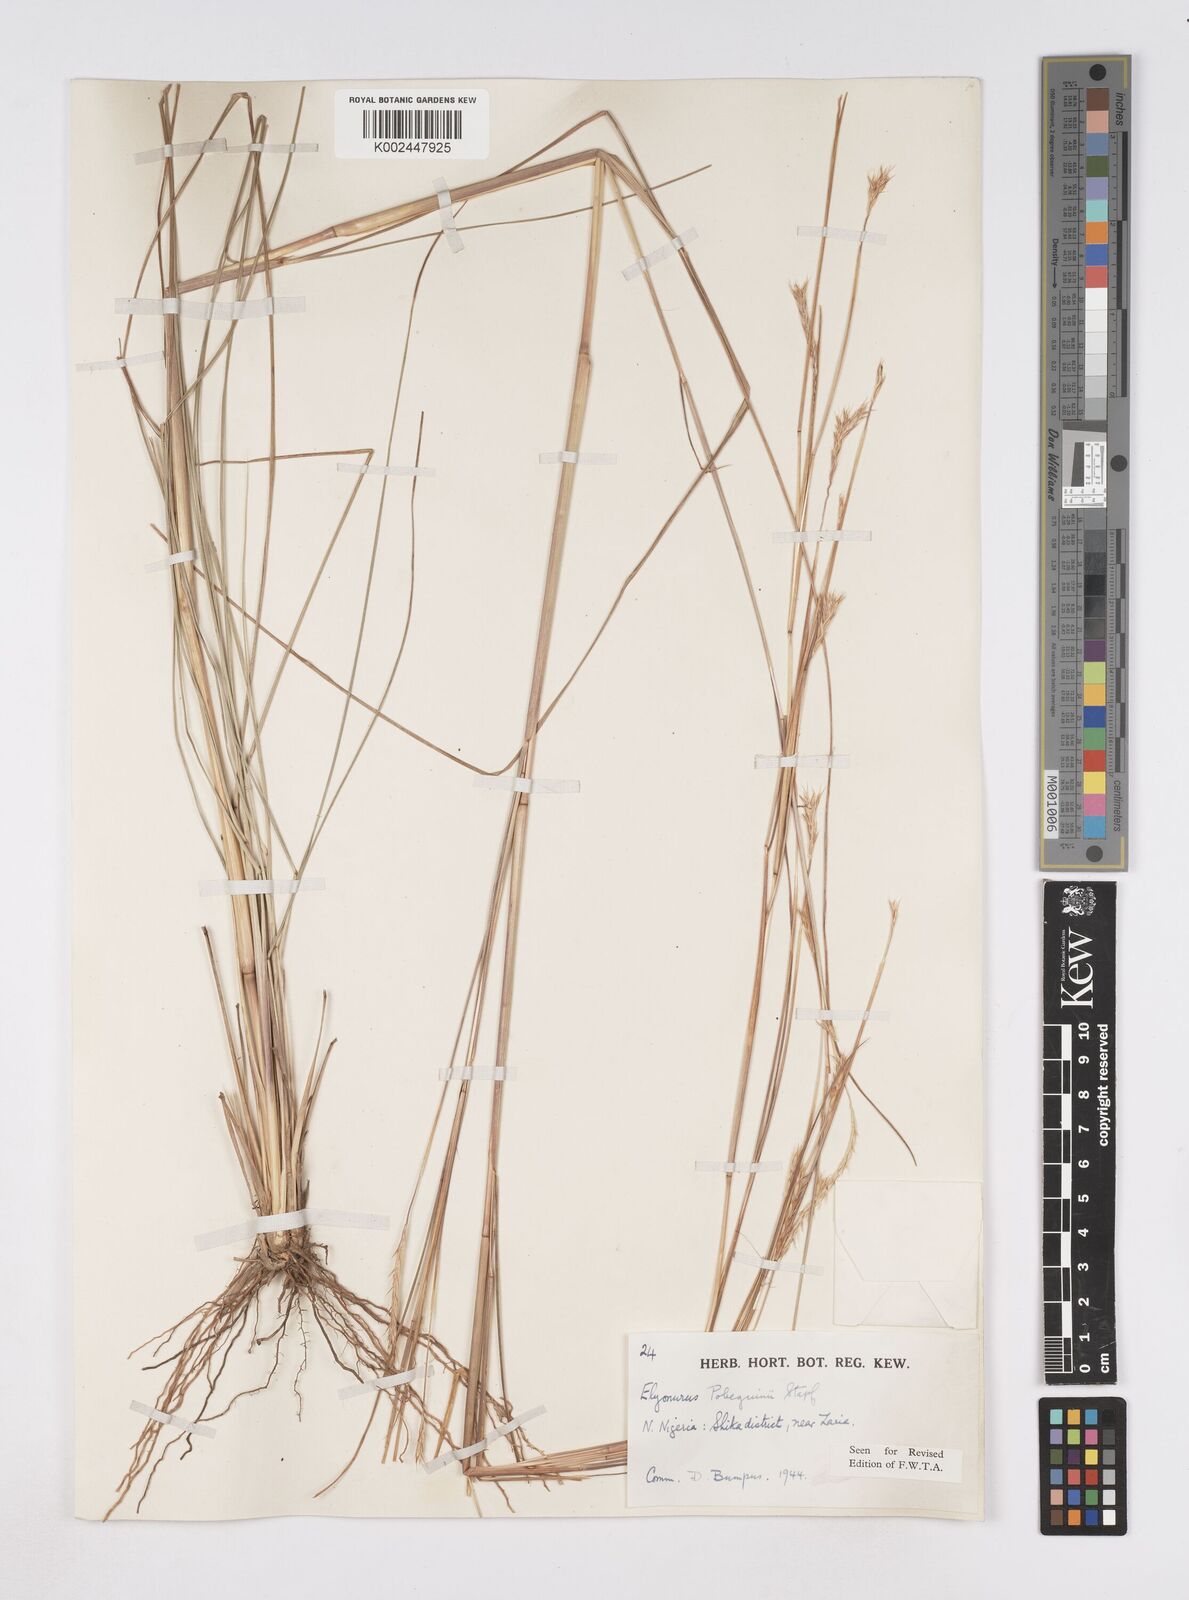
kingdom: Plantae
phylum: Tracheophyta
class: Liliopsida
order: Poales
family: Poaceae
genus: Elionurus
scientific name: Elionurus
